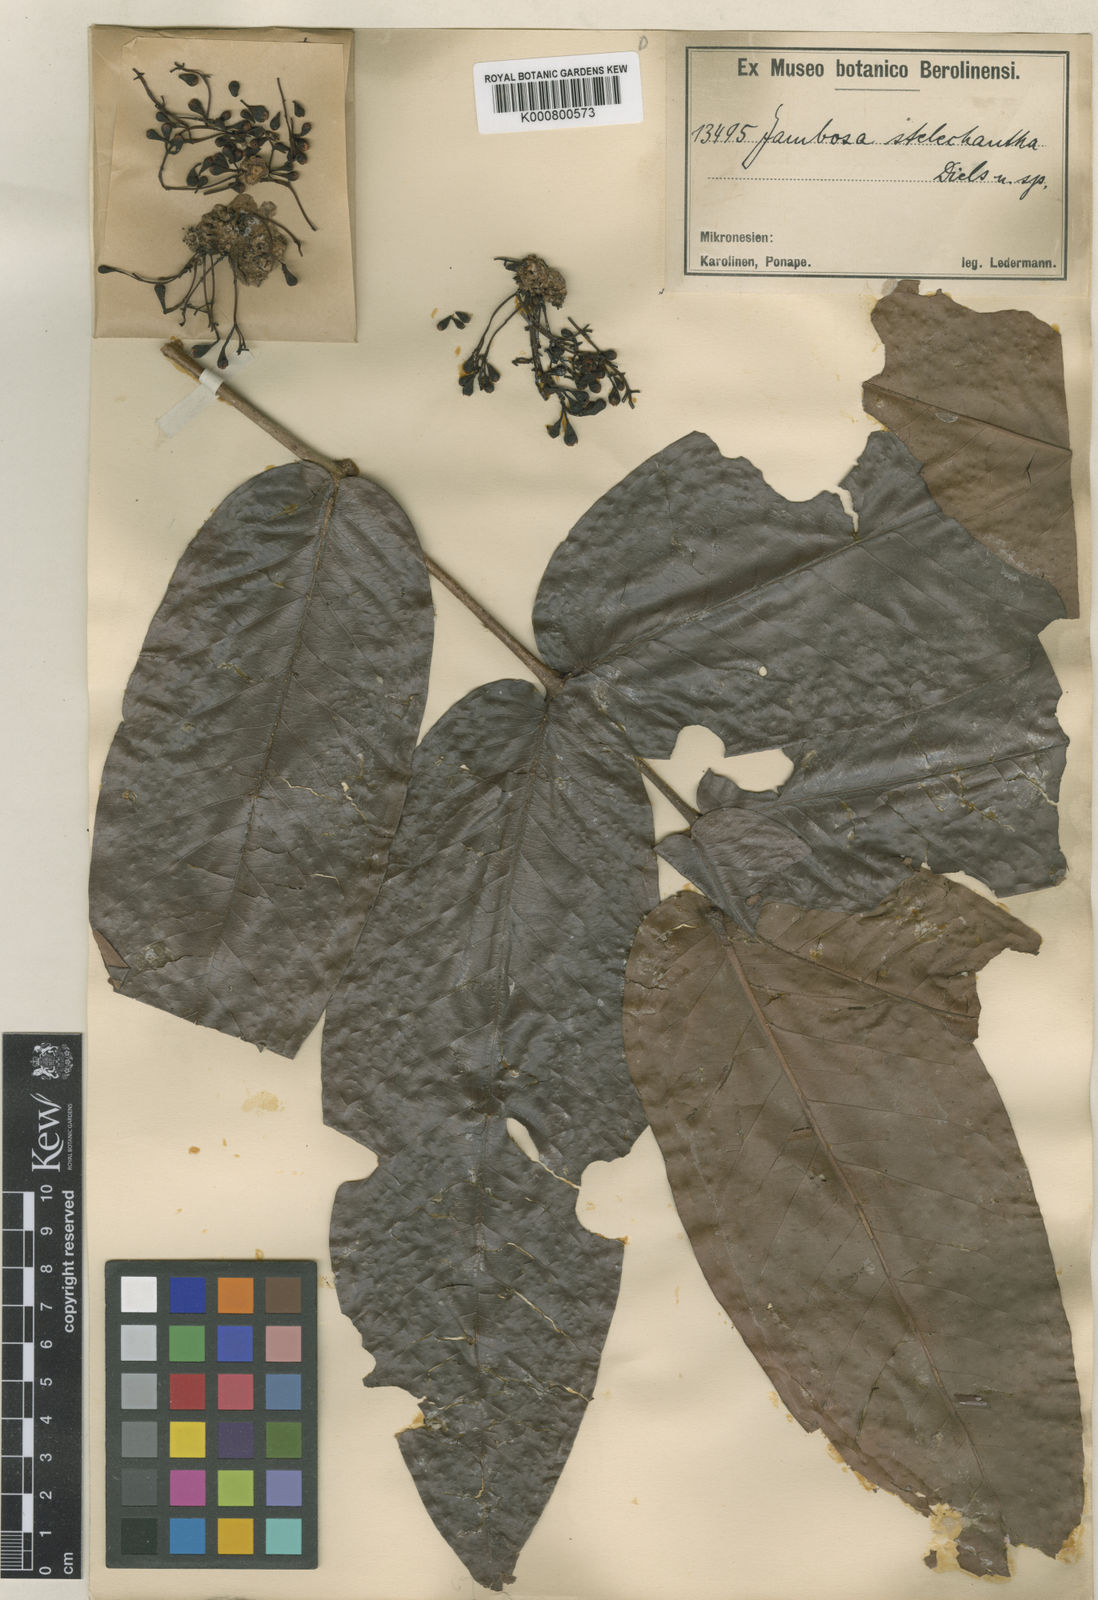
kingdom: Plantae
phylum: Tracheophyta
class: Magnoliopsida
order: Myrtales
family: Myrtaceae
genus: Syzygium
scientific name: Syzygium stelechanthum
